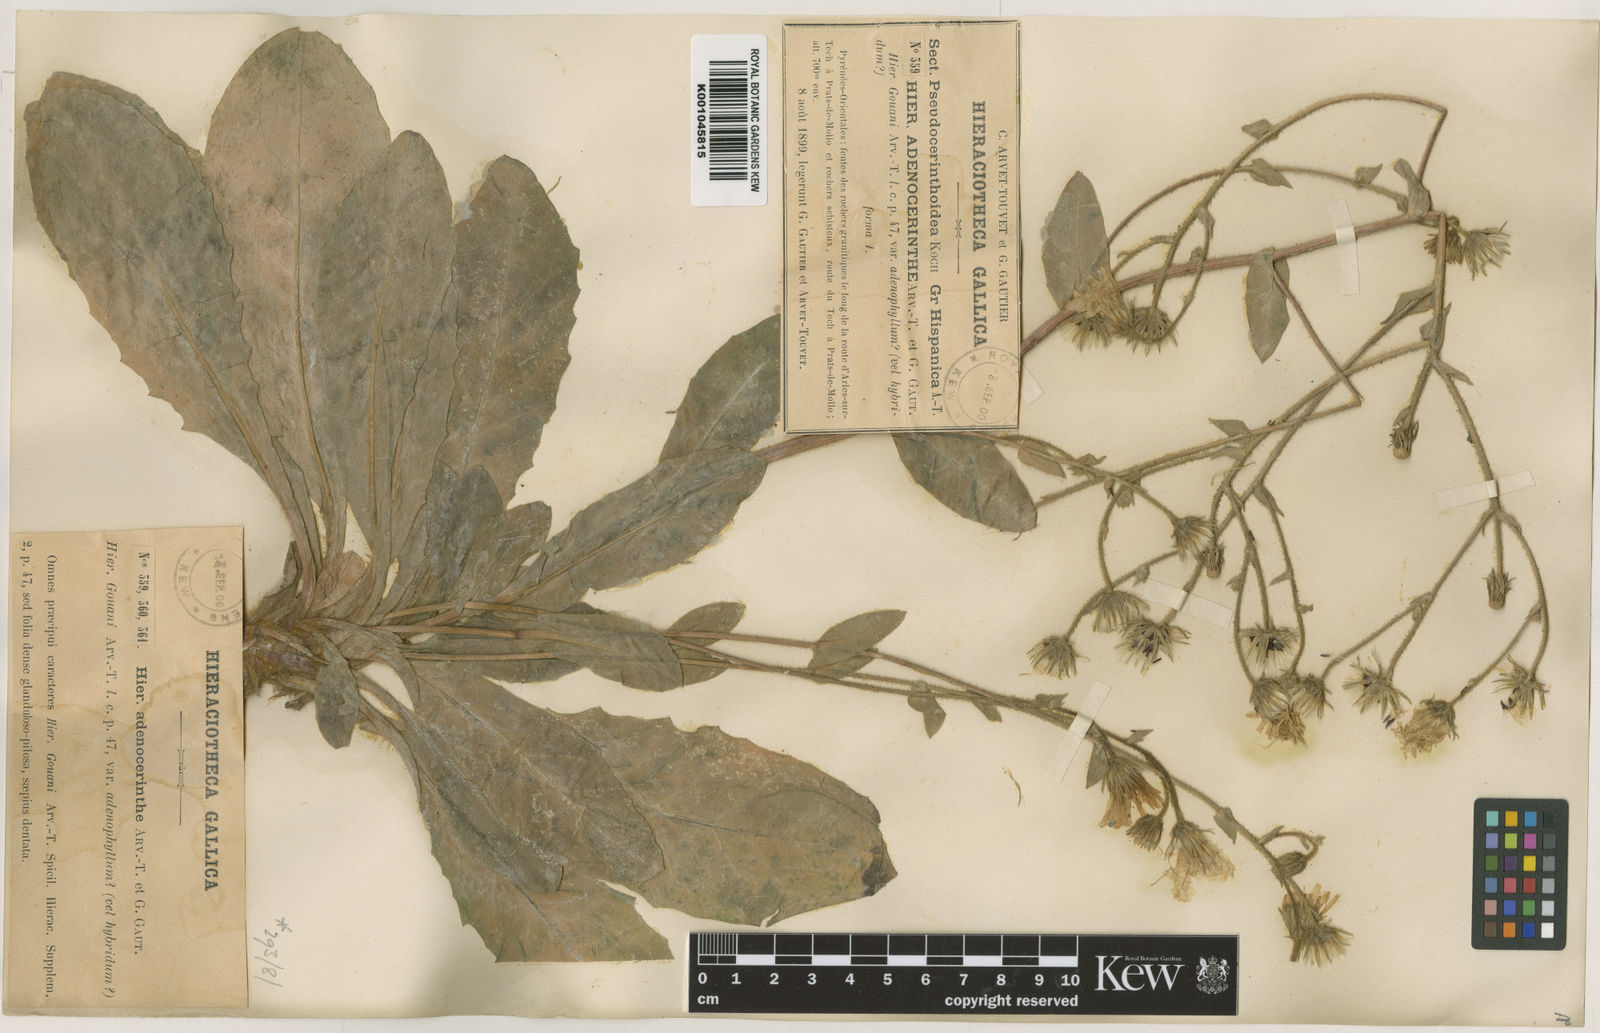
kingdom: Plantae
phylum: Tracheophyta
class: Magnoliopsida
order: Asterales
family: Asteraceae
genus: Hieracium
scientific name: Hieracium cordatum
